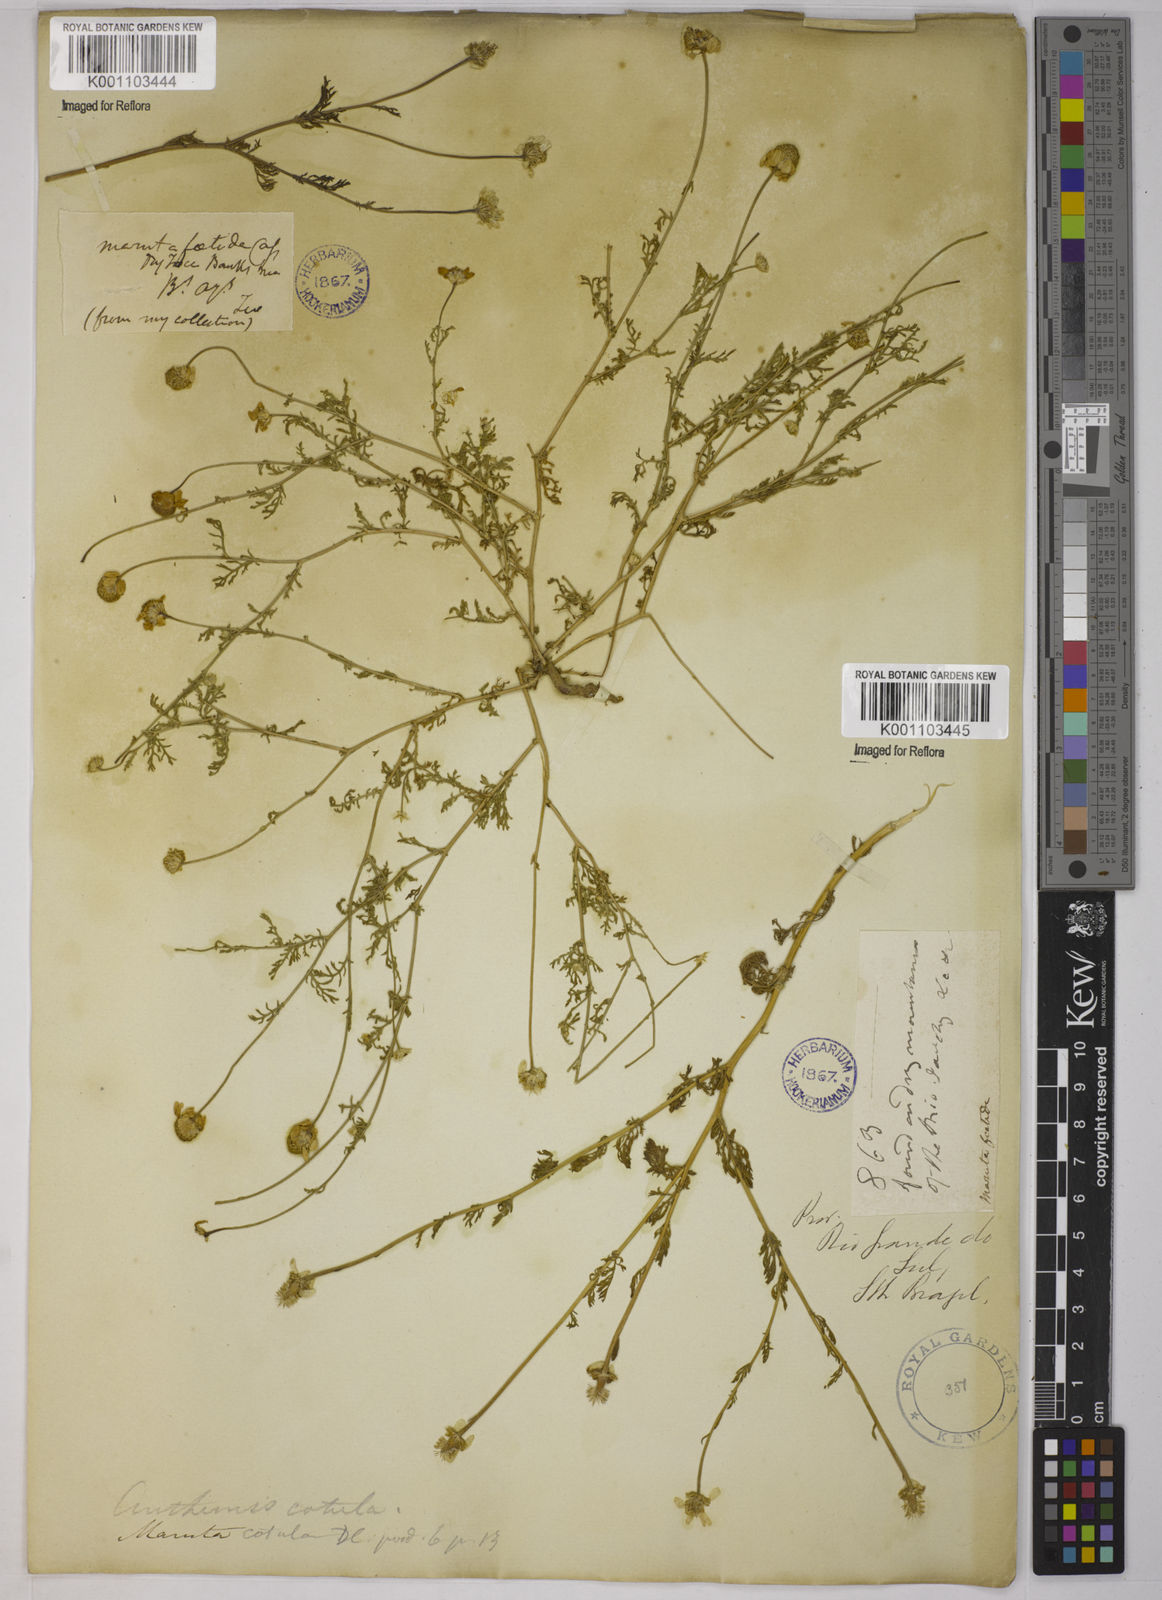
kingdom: Plantae
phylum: Tracheophyta
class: Magnoliopsida
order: Asterales
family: Asteraceae
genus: Anthemis
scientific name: Anthemis cotula
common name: Stinking chamomile
